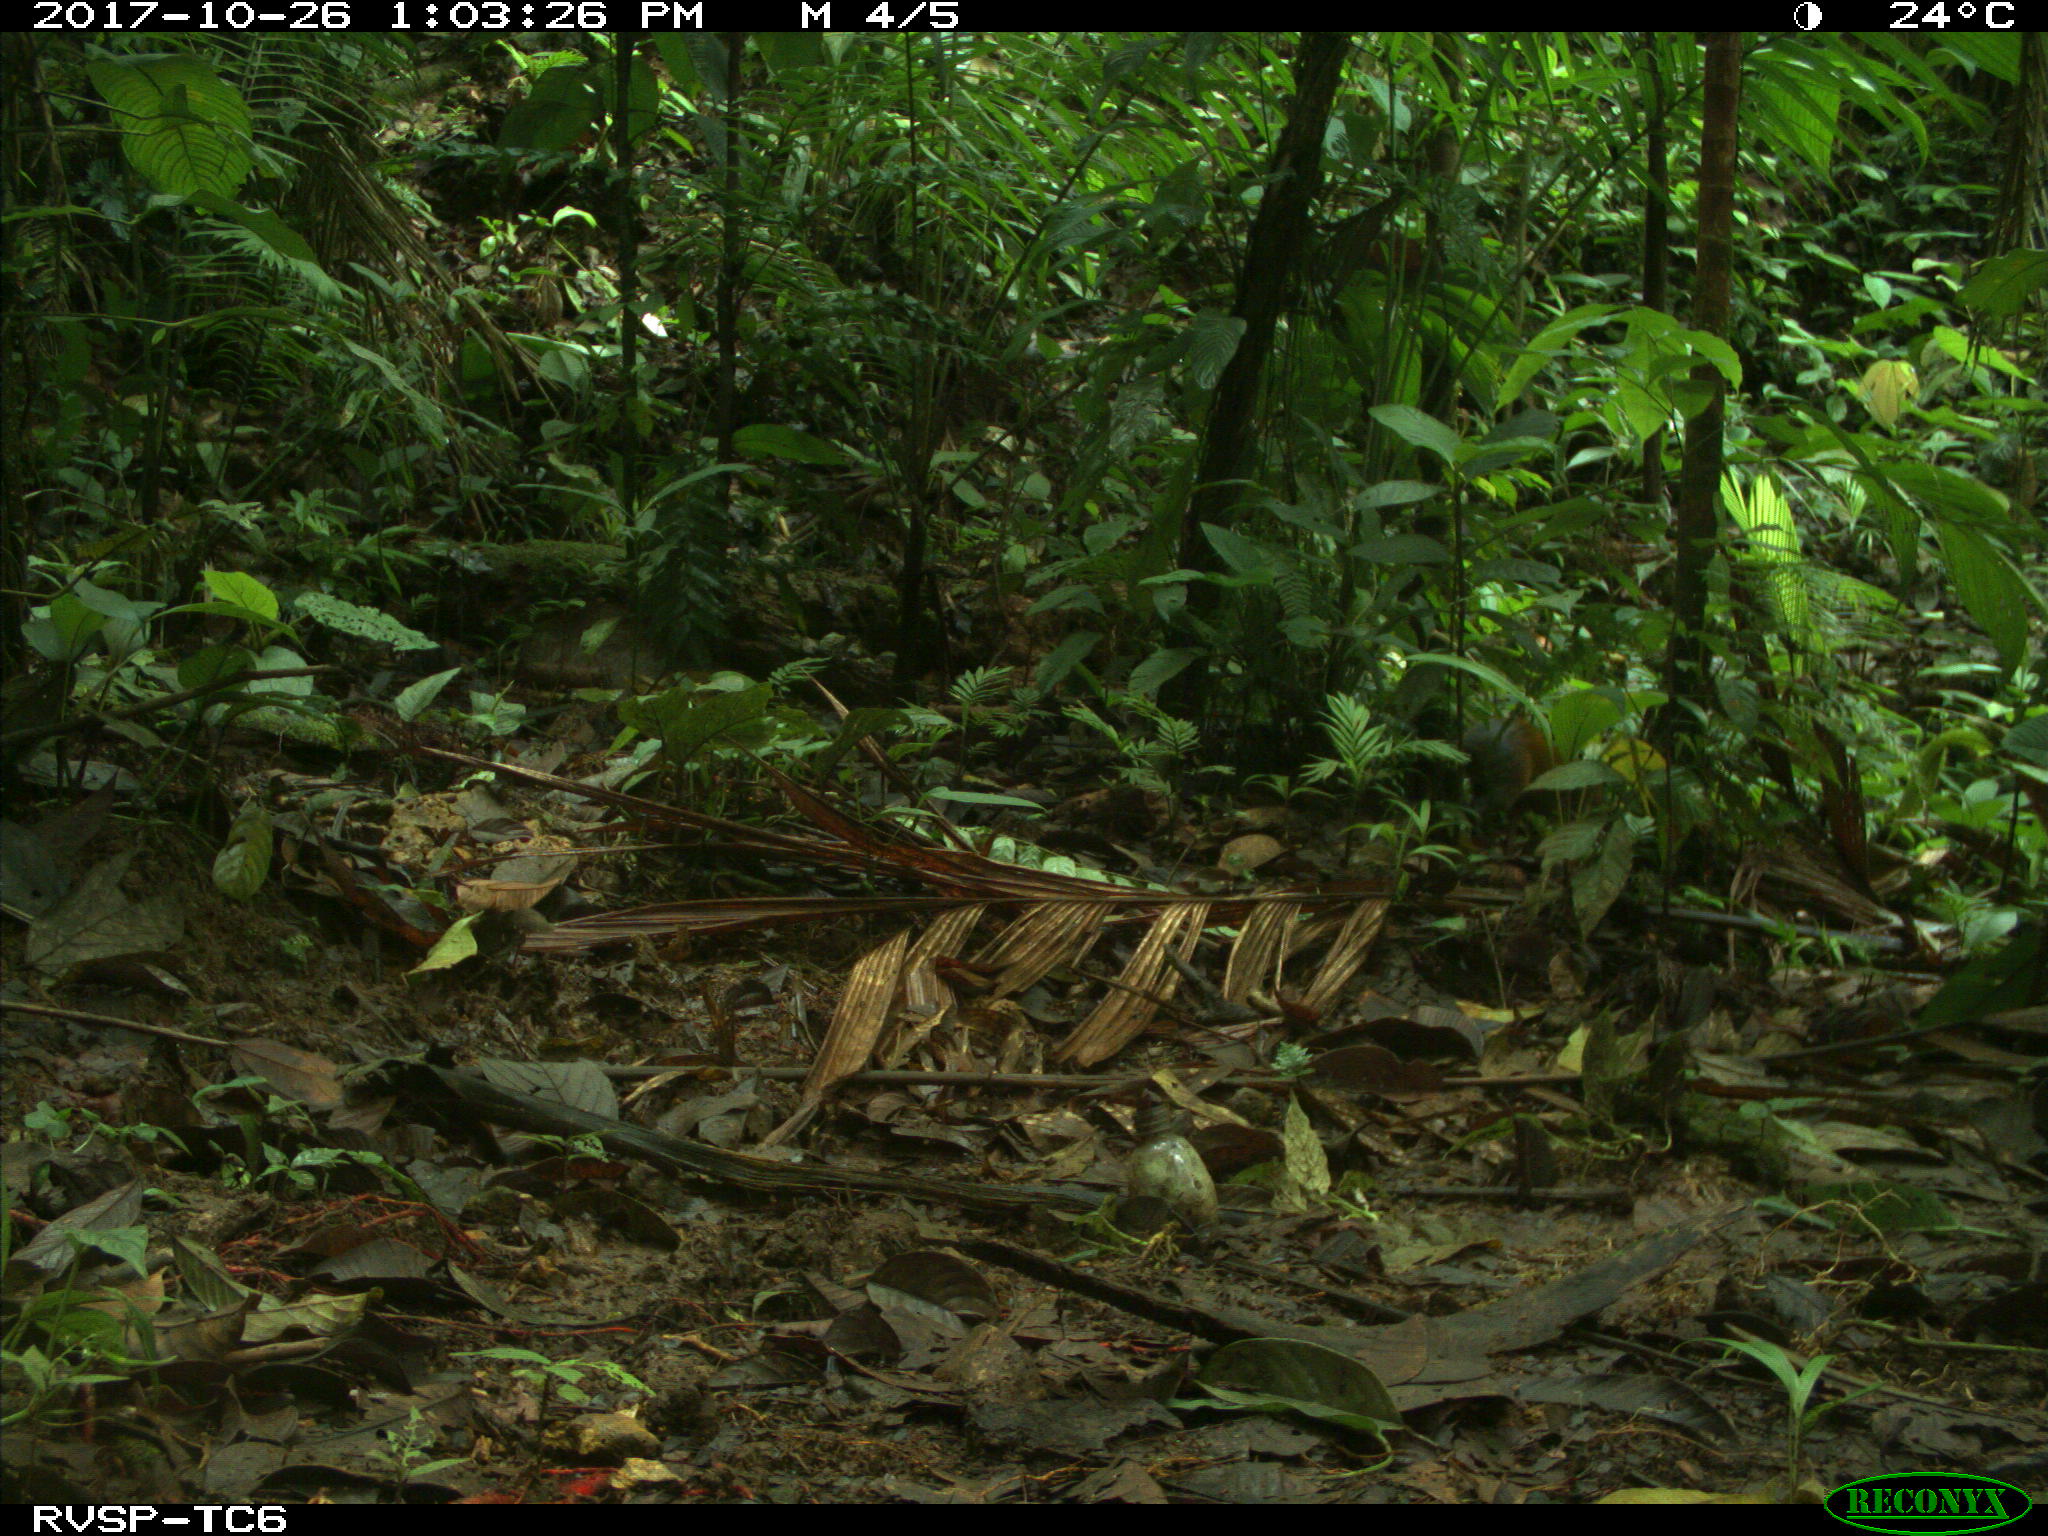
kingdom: Animalia
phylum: Chordata
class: Mammalia
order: Rodentia
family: Dasyproctidae
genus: Dasyprocta
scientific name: Dasyprocta punctata
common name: Central american agouti
